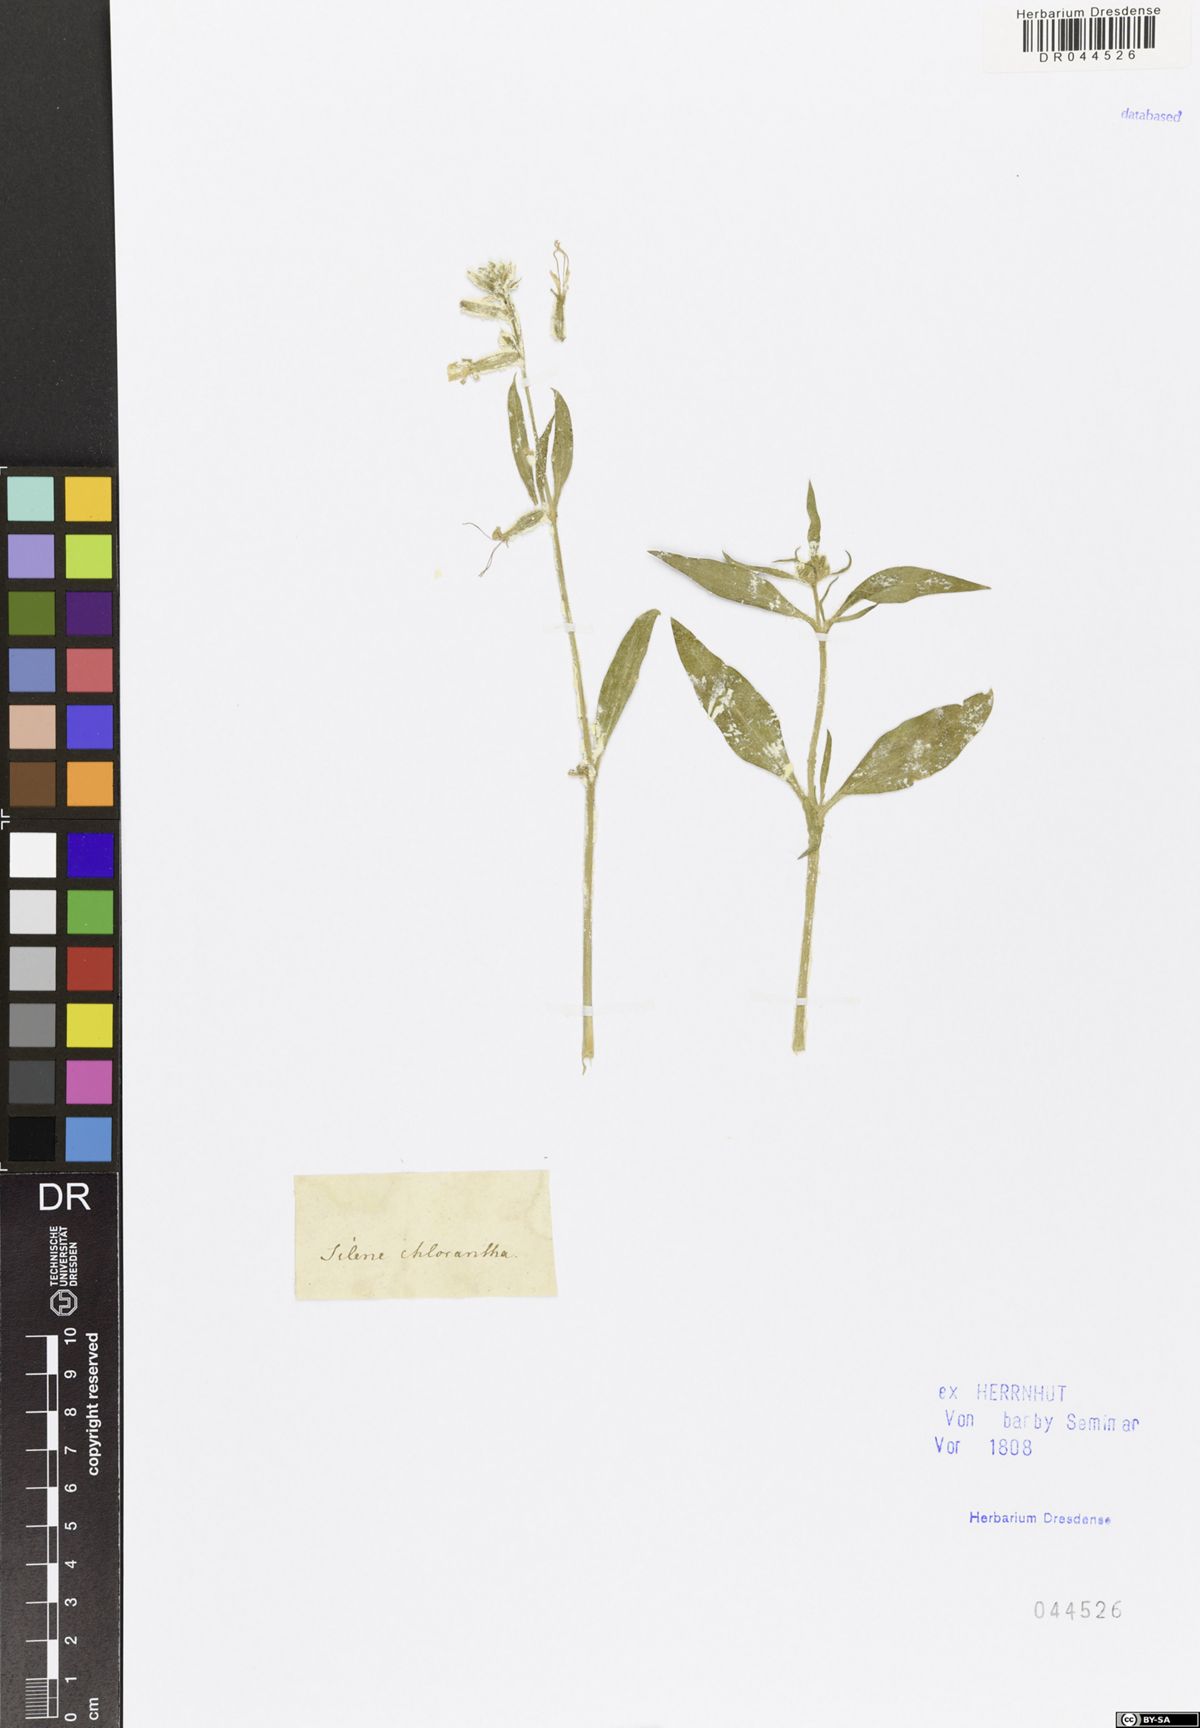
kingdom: Plantae
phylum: Tracheophyta
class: Magnoliopsida
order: Caryophyllales
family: Caryophyllaceae
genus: Silene
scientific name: Silene chlorantha
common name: Yellowgreen catchfly
